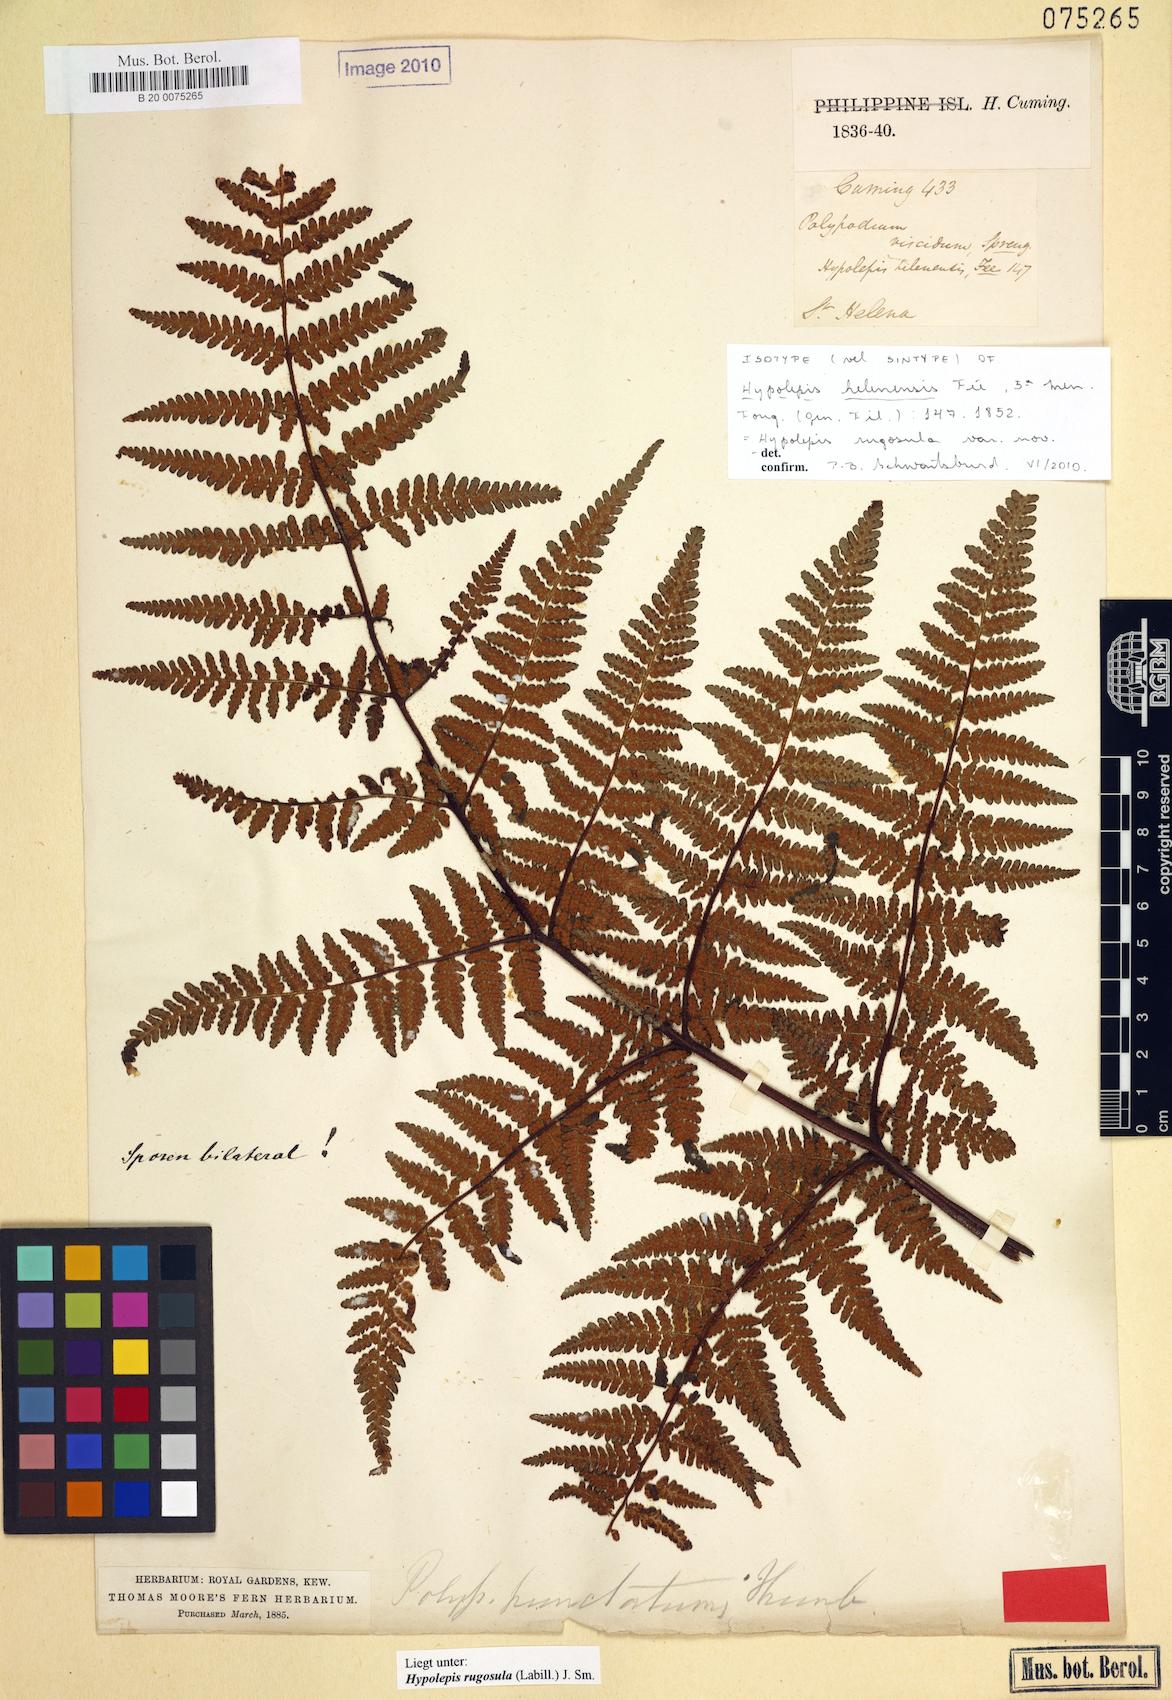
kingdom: Plantae
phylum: Tracheophyta
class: Polypodiopsida
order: Polypodiales
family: Dennstaedtiaceae
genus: Hypolepis
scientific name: Hypolepis rugosula
